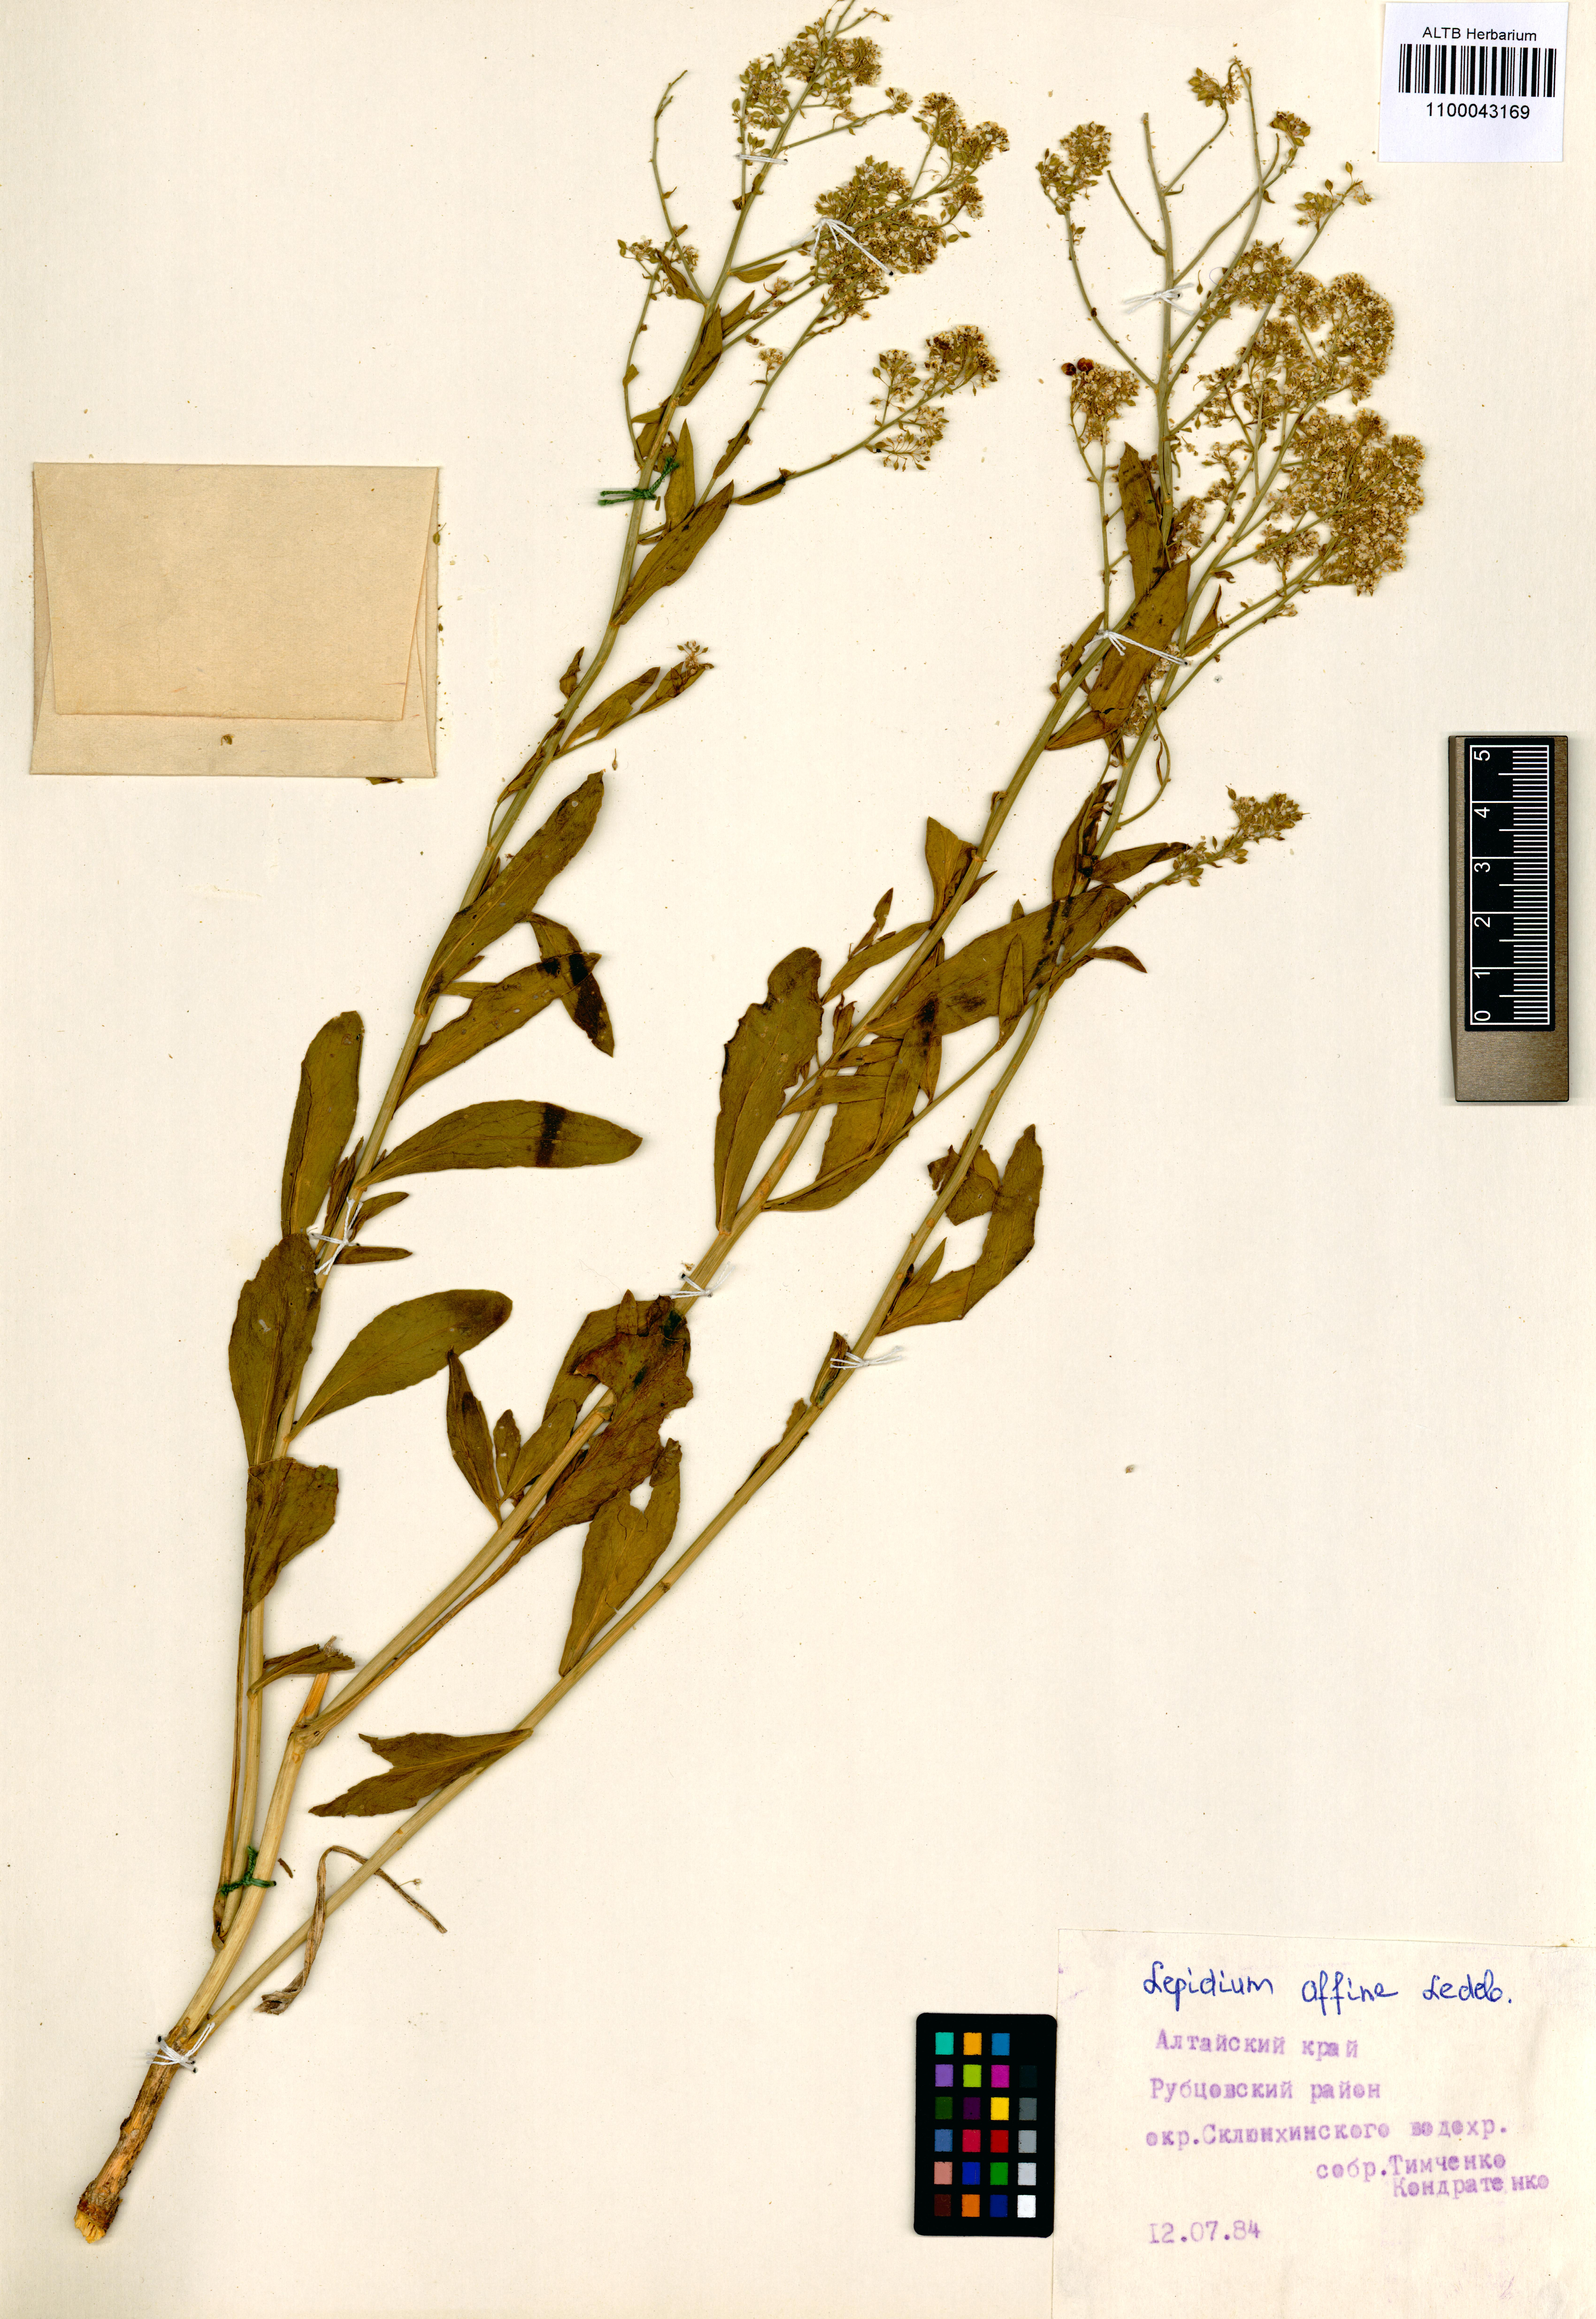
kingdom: Plantae
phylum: Tracheophyta
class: Magnoliopsida
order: Brassicales
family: Brassicaceae
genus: Lepidium
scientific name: Lepidium latifolium
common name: Dittander
